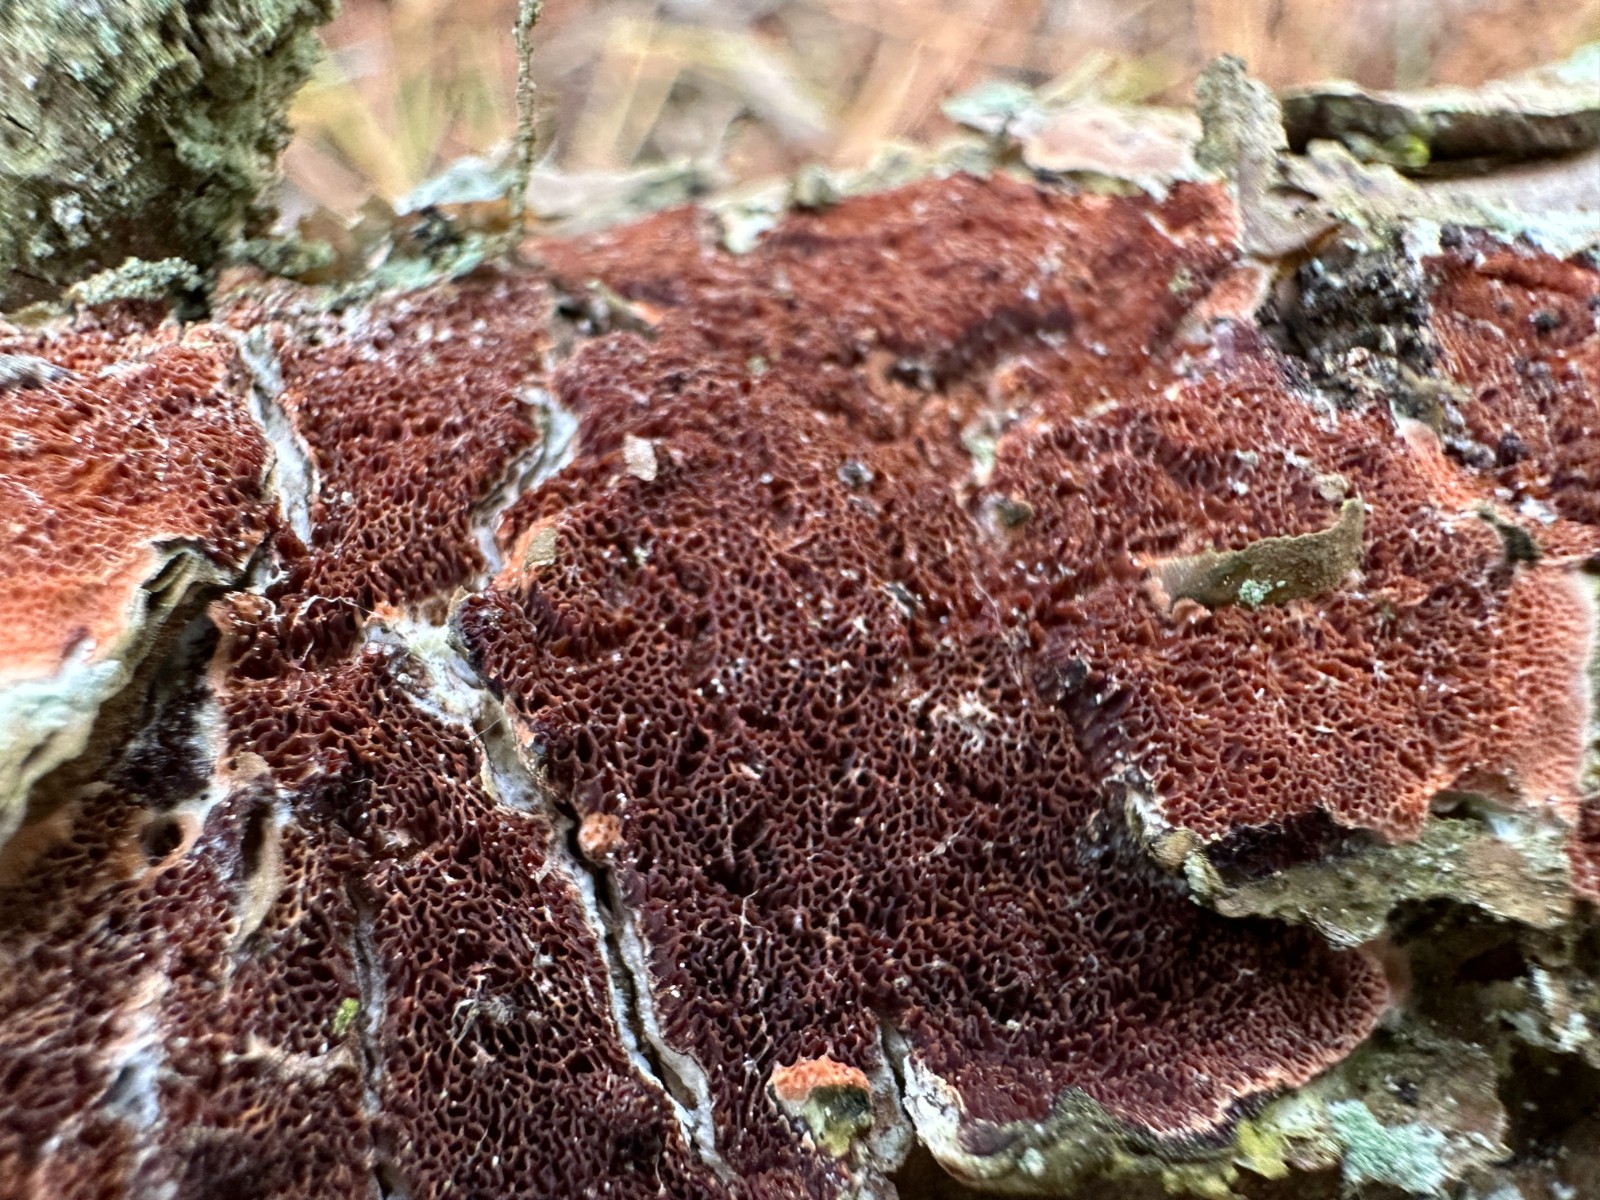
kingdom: Fungi
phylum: Basidiomycota
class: Agaricomycetes
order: Hymenochaetales
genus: Trichaptum
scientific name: Trichaptum abietinum
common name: almindelig violporesvamp
